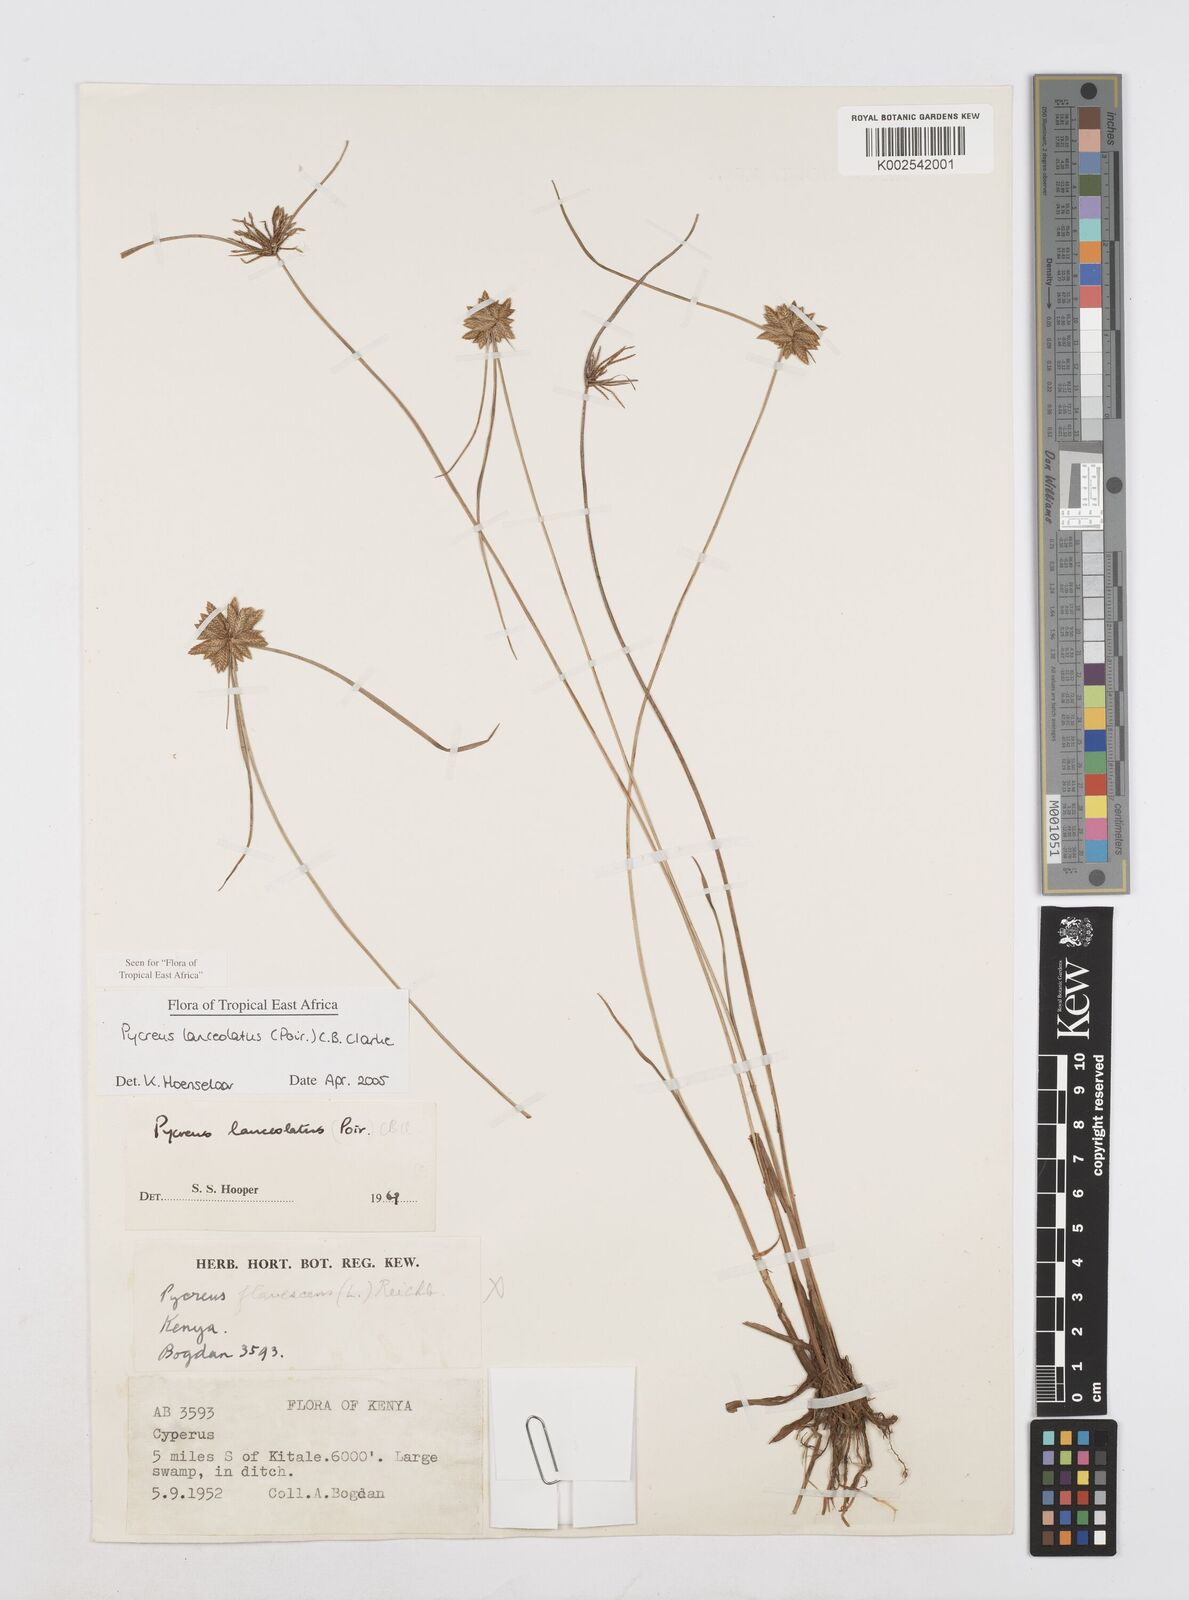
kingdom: Plantae
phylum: Tracheophyta
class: Liliopsida
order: Poales
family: Cyperaceae
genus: Cyperus
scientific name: Cyperus lanceolatus
